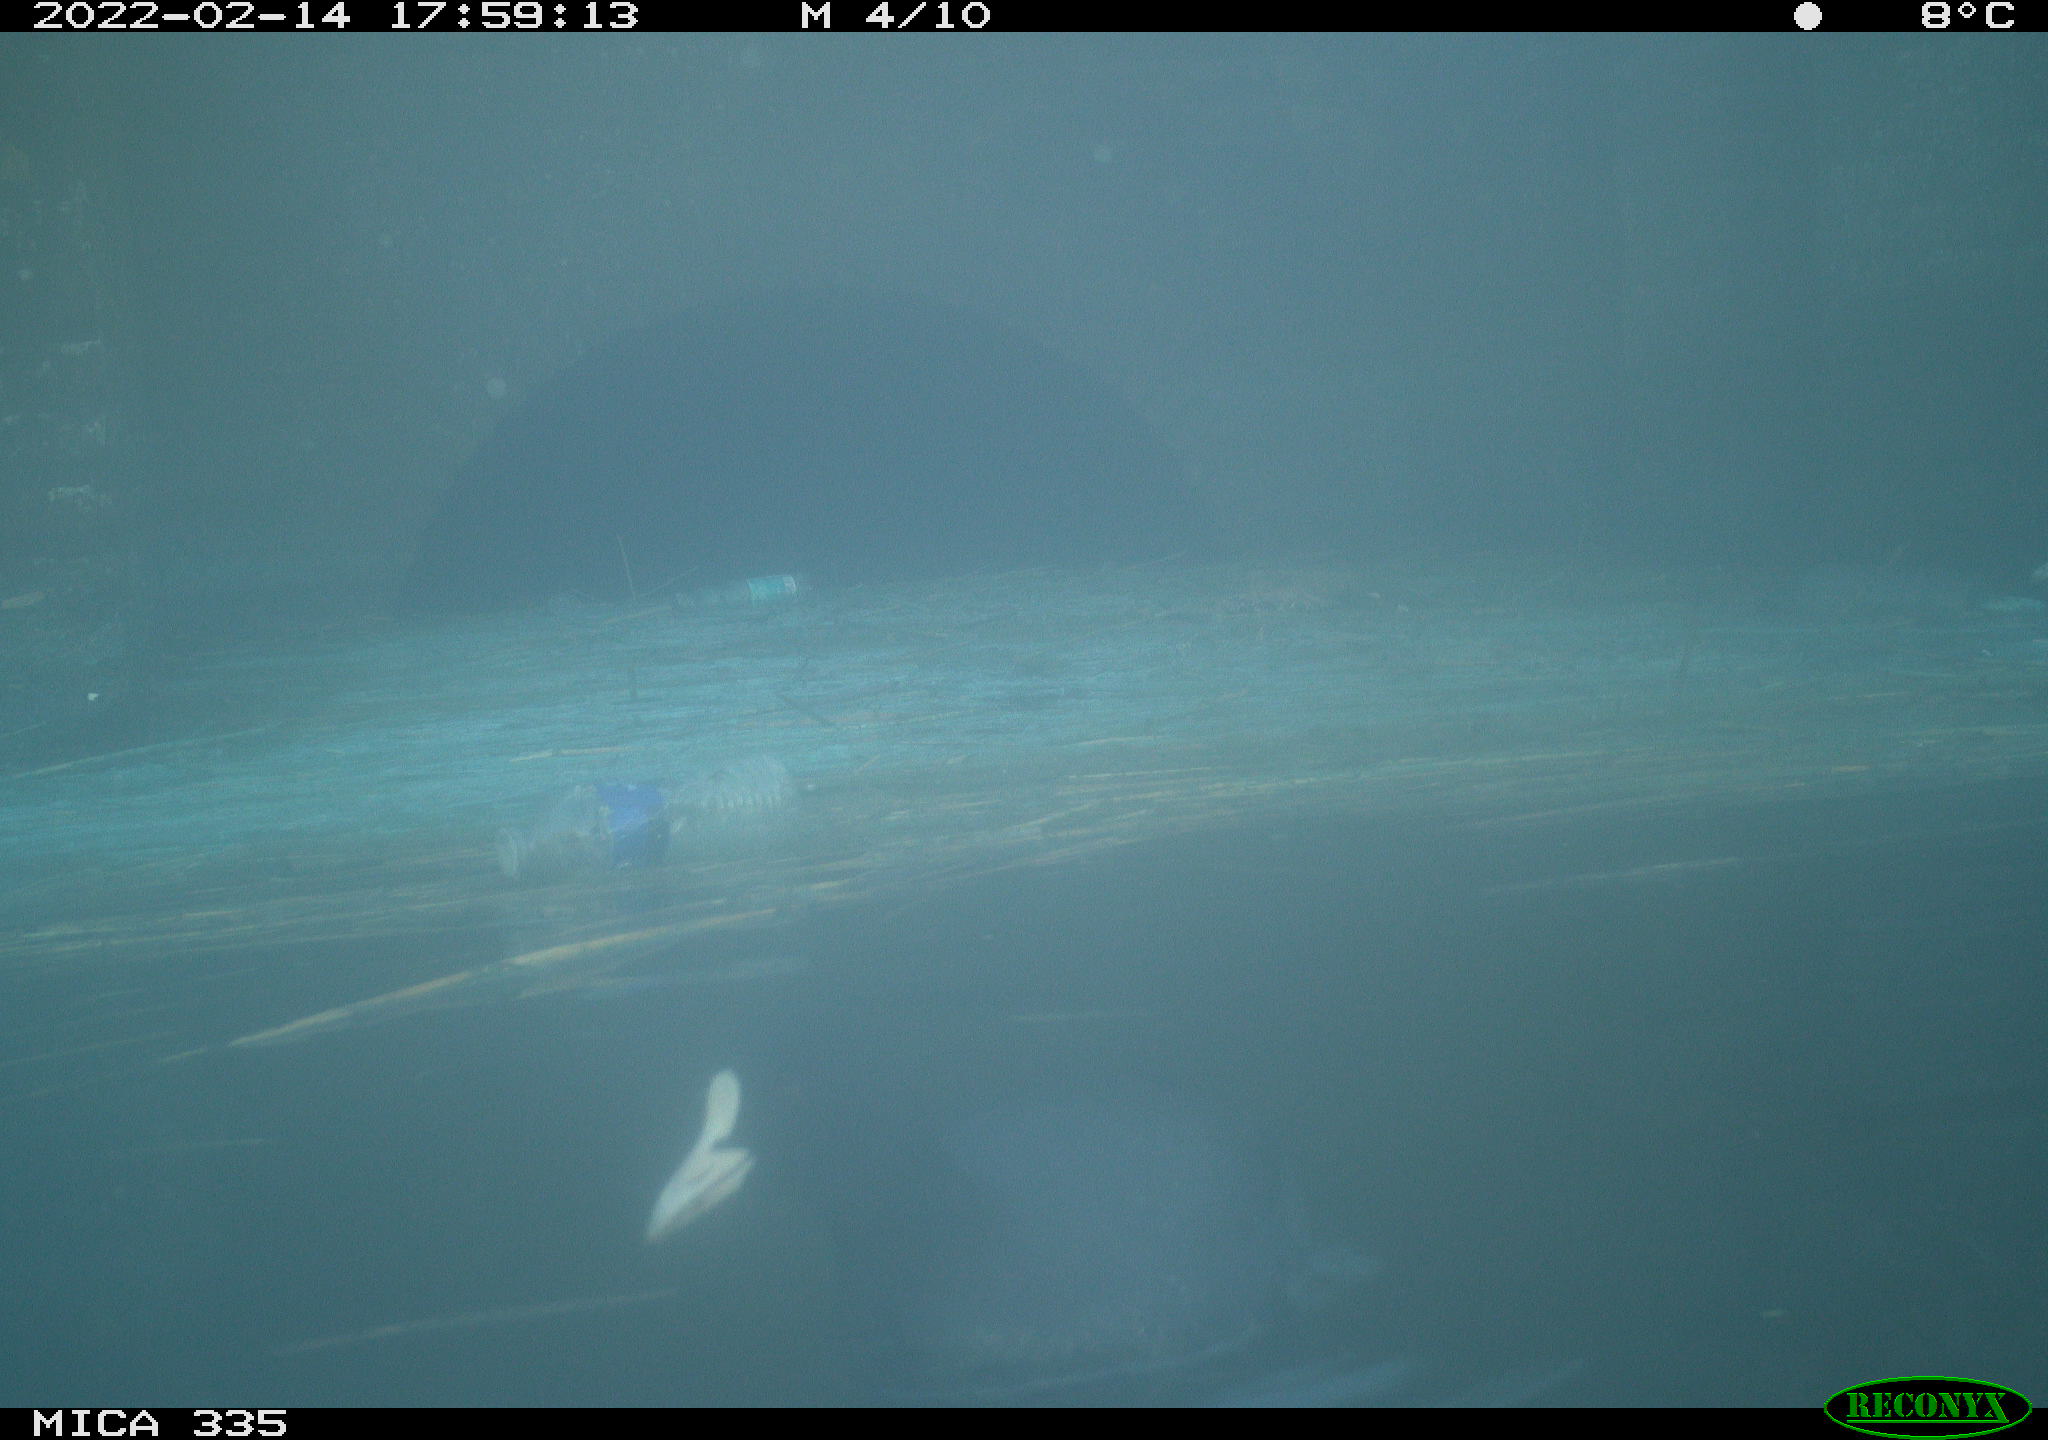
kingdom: Animalia
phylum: Chordata
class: Aves
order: Gruiformes
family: Rallidae
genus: Fulica
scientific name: Fulica atra
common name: Eurasian coot
